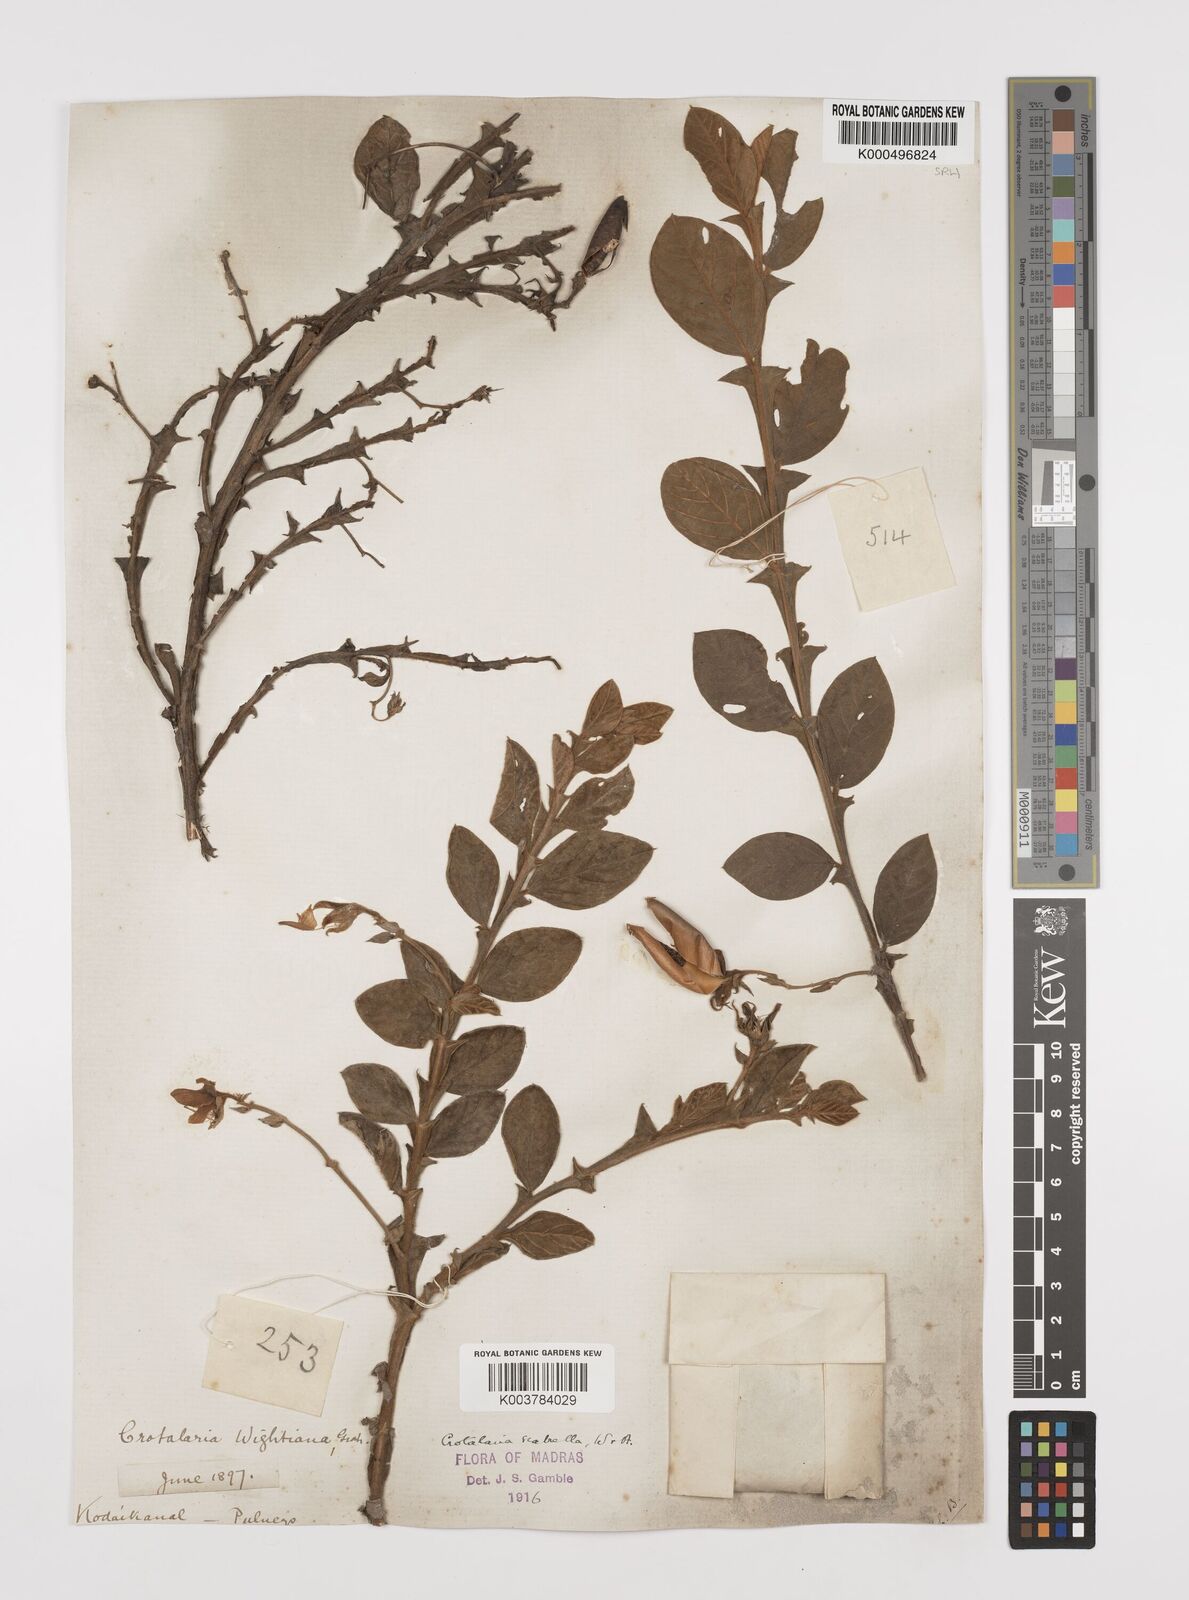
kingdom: Plantae
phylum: Tracheophyta
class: Magnoliopsida
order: Fabales
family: Fabaceae
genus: Crotalaria
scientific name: Crotalaria scabrella
